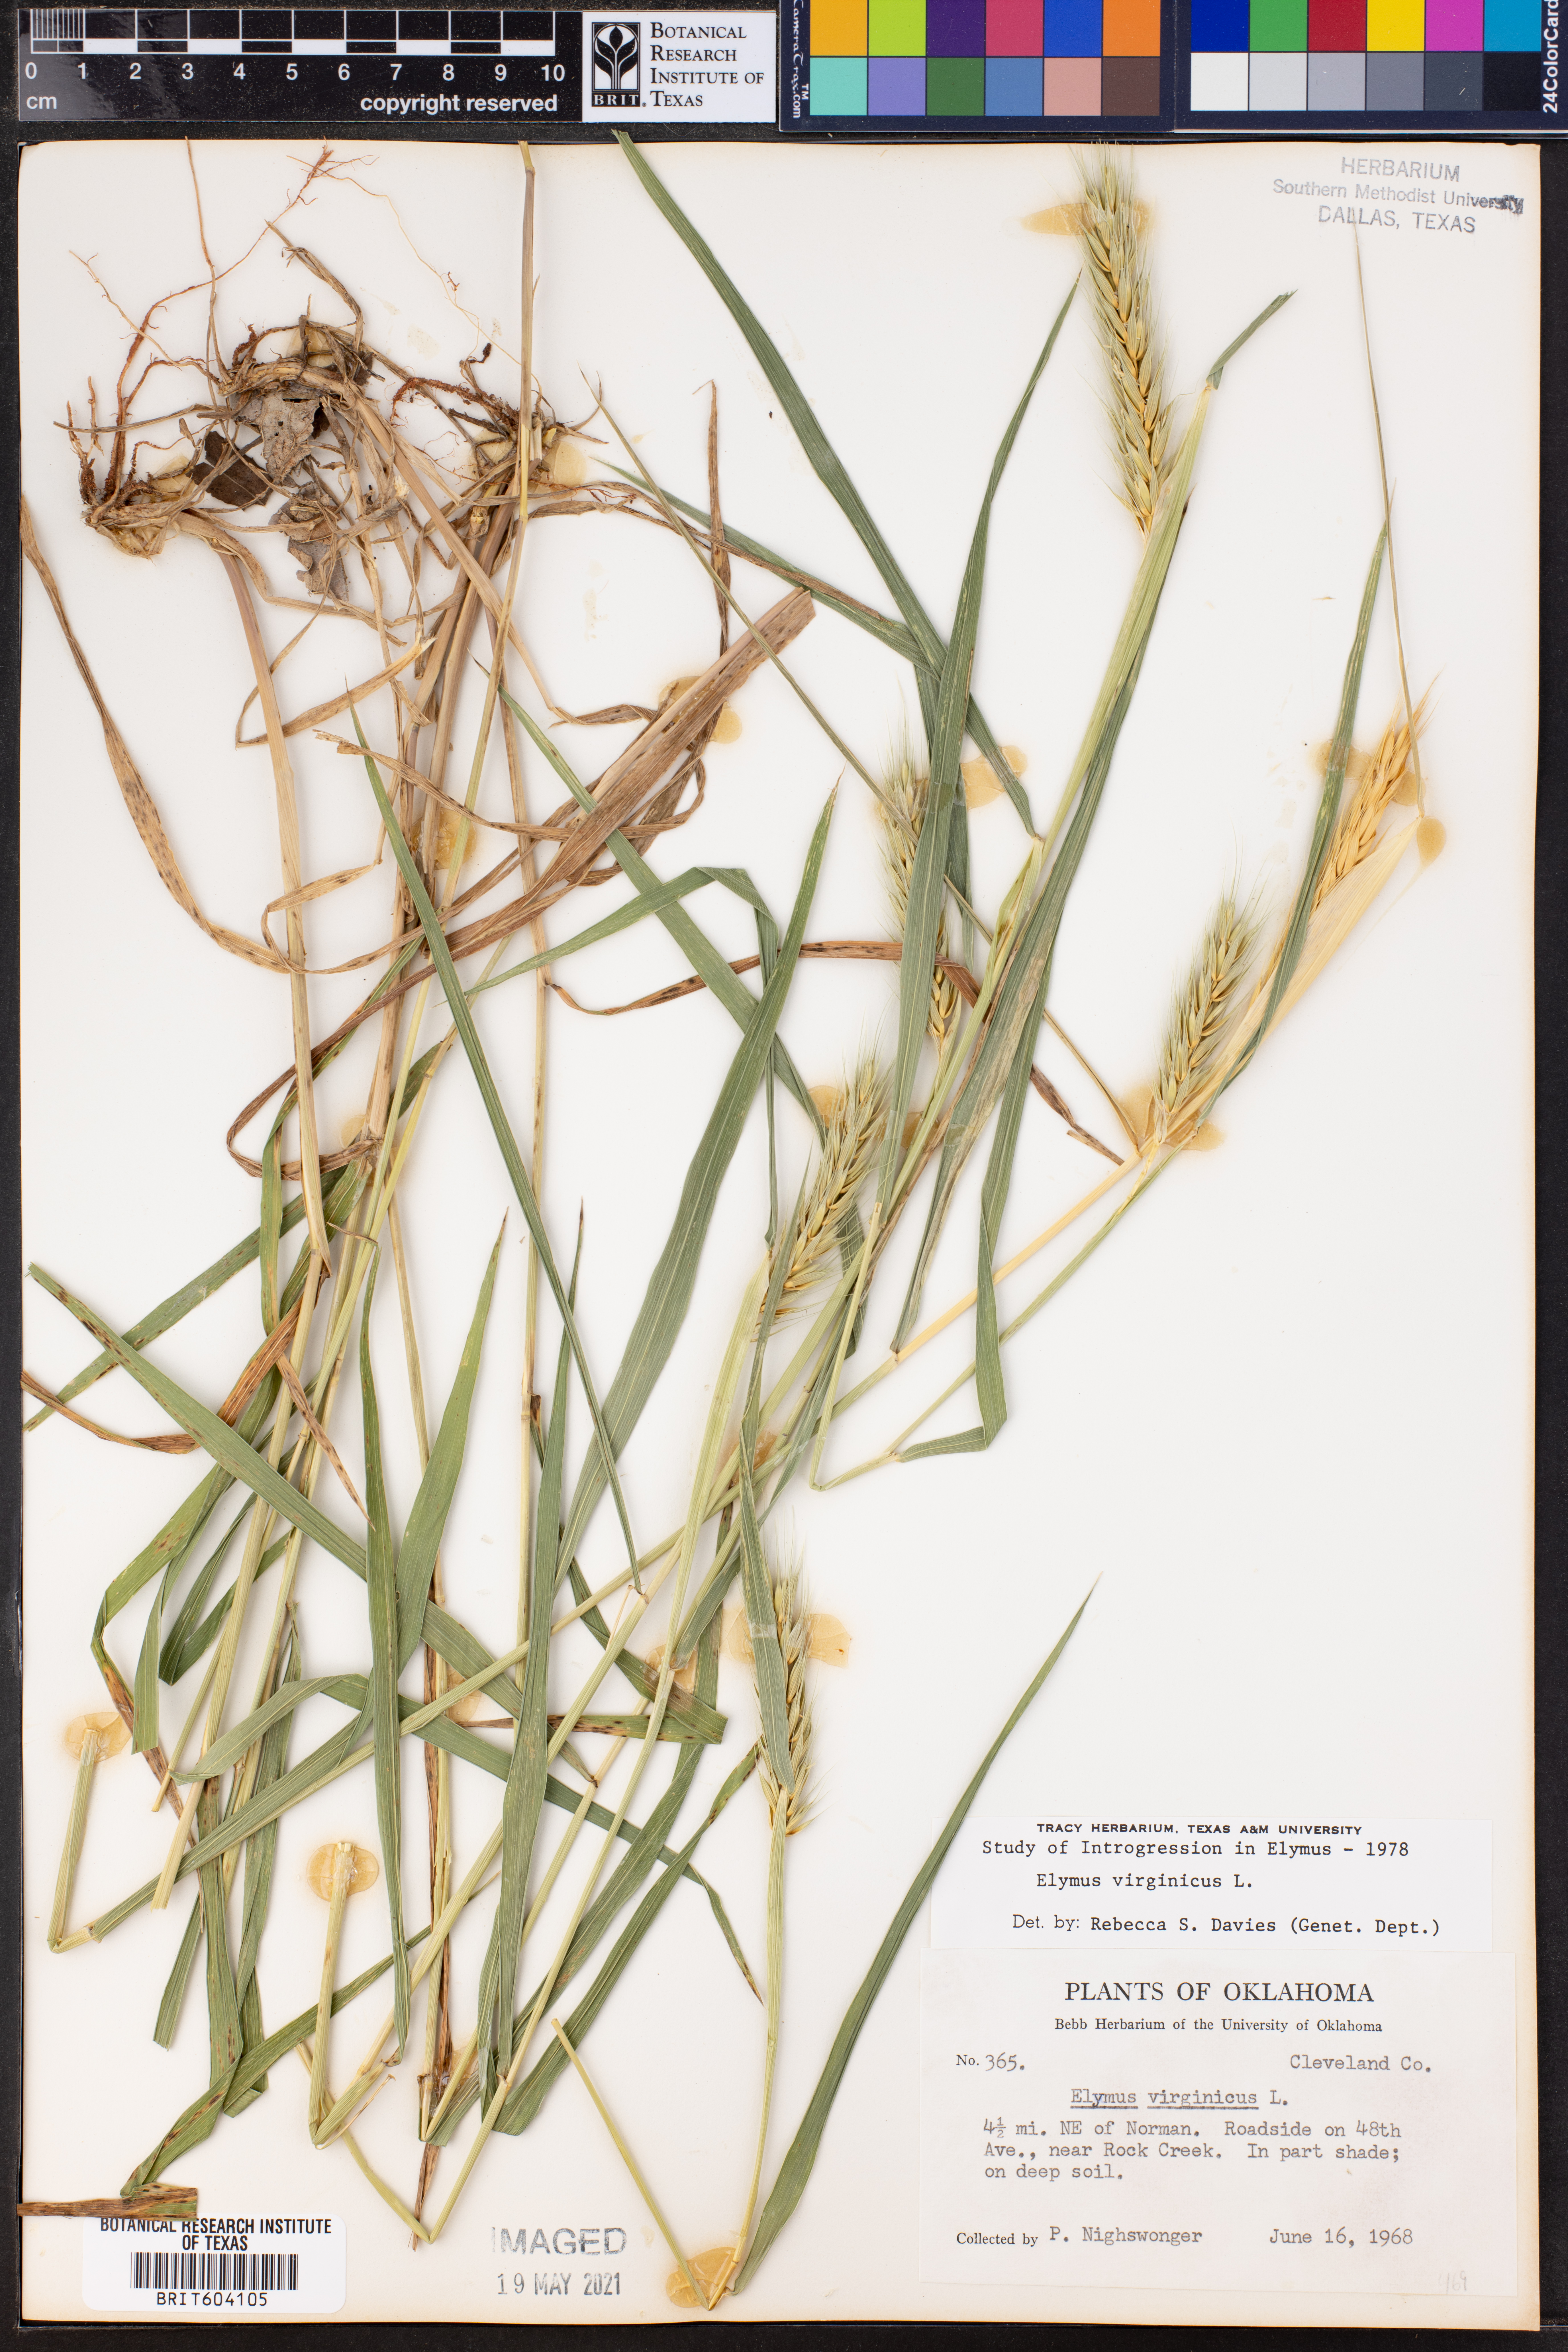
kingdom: Plantae
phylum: Tracheophyta
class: Liliopsida
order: Poales
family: Poaceae
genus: Elymus
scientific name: Elymus virginicus
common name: Common eastern wildrye
